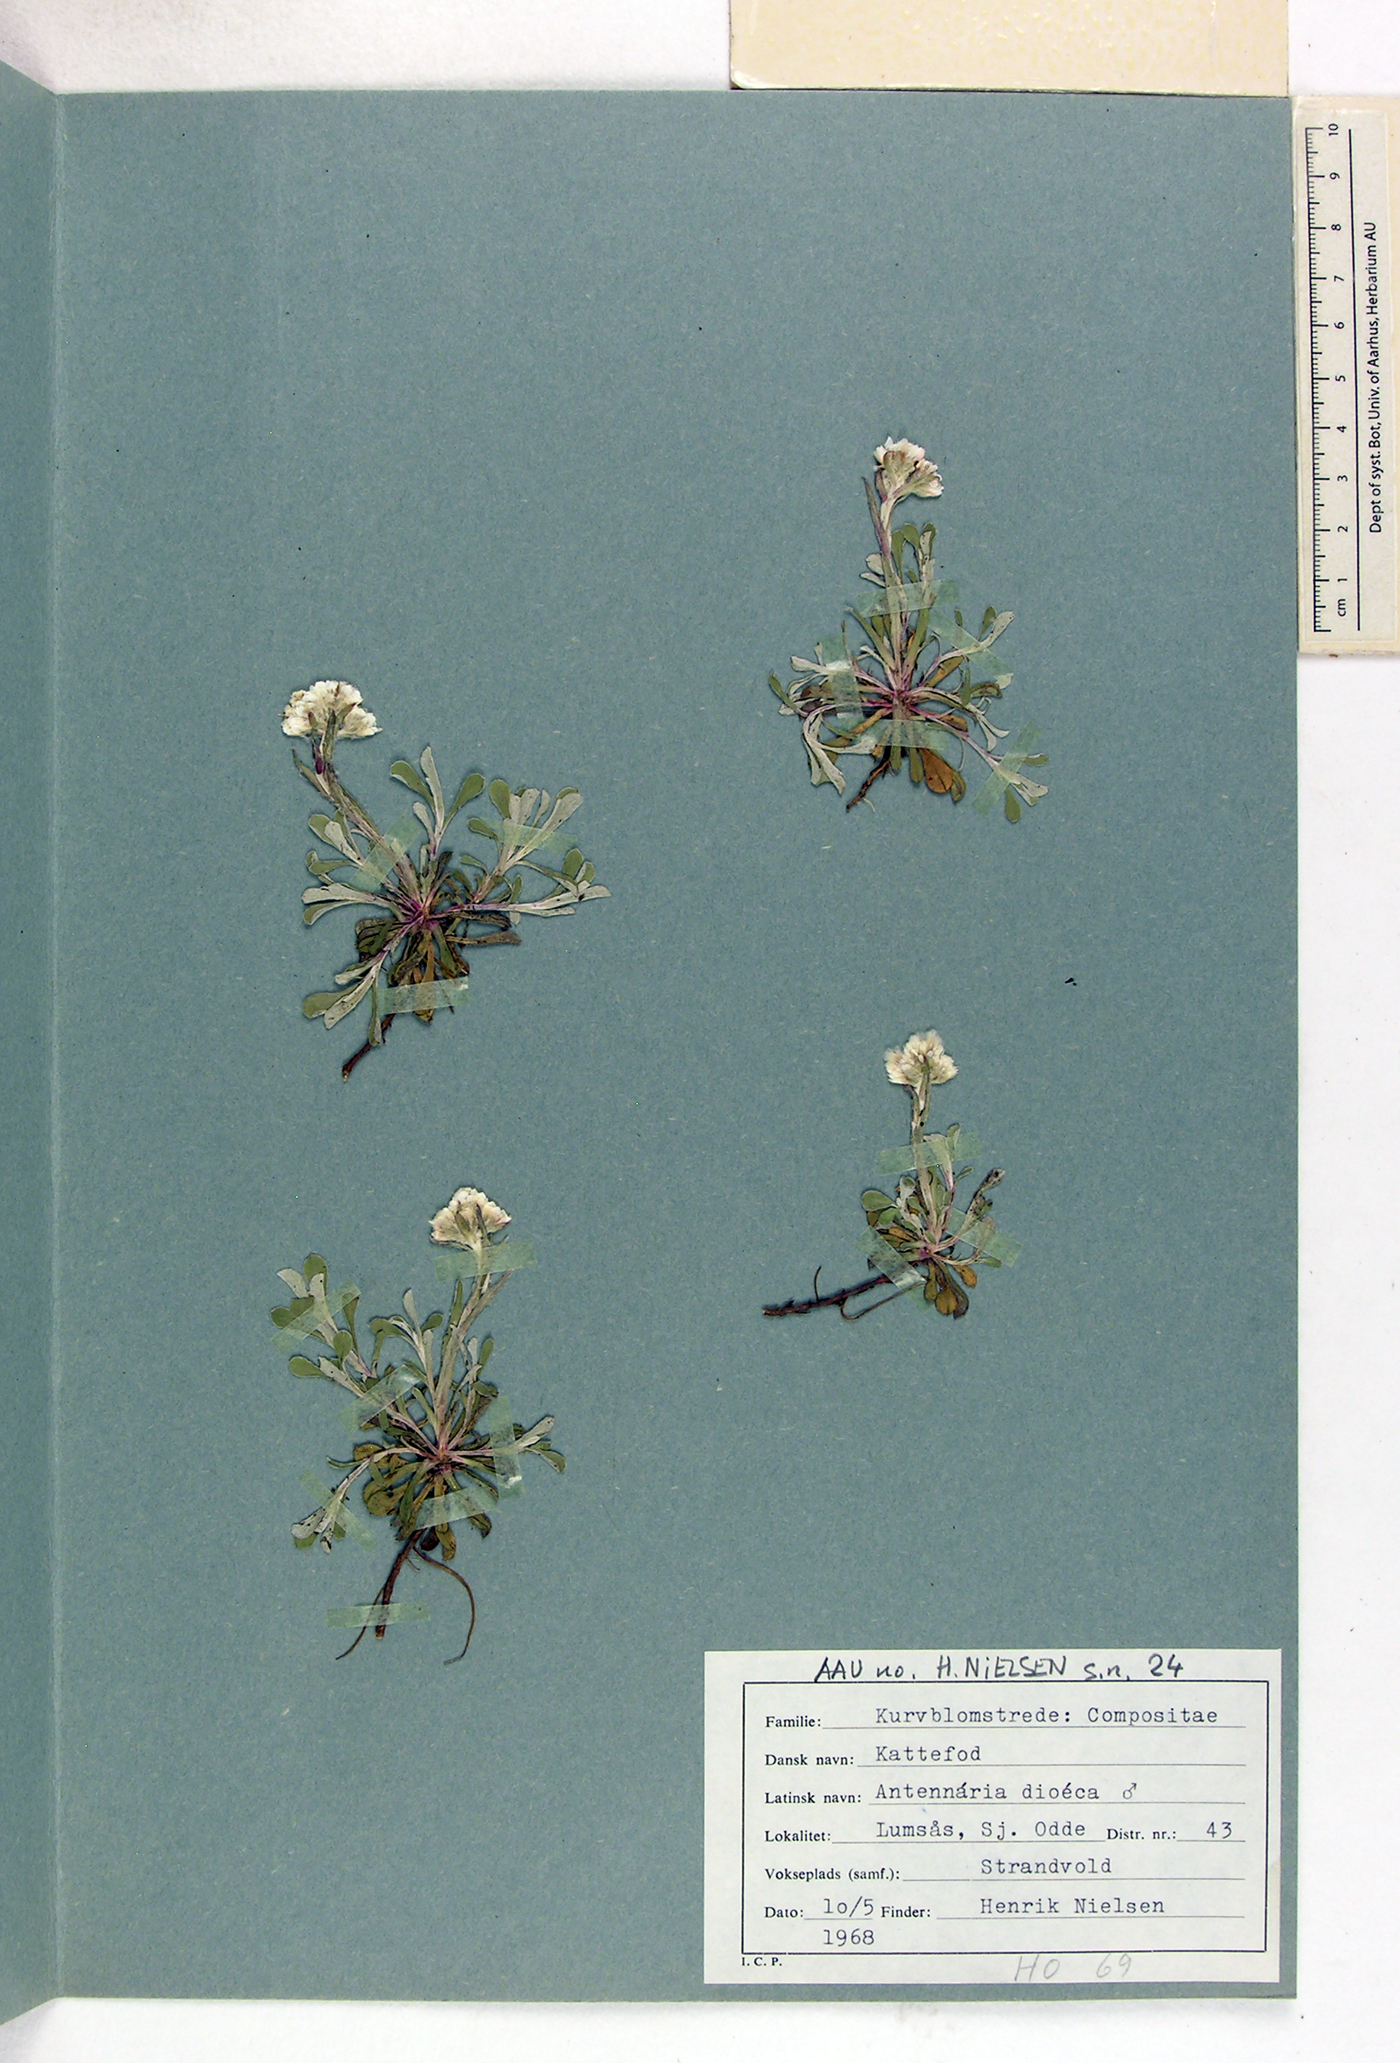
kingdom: Plantae
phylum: Tracheophyta
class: Magnoliopsida
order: Asterales
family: Asteraceae
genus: Antennaria
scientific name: Antennaria dioica
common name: Mountain everlasting
